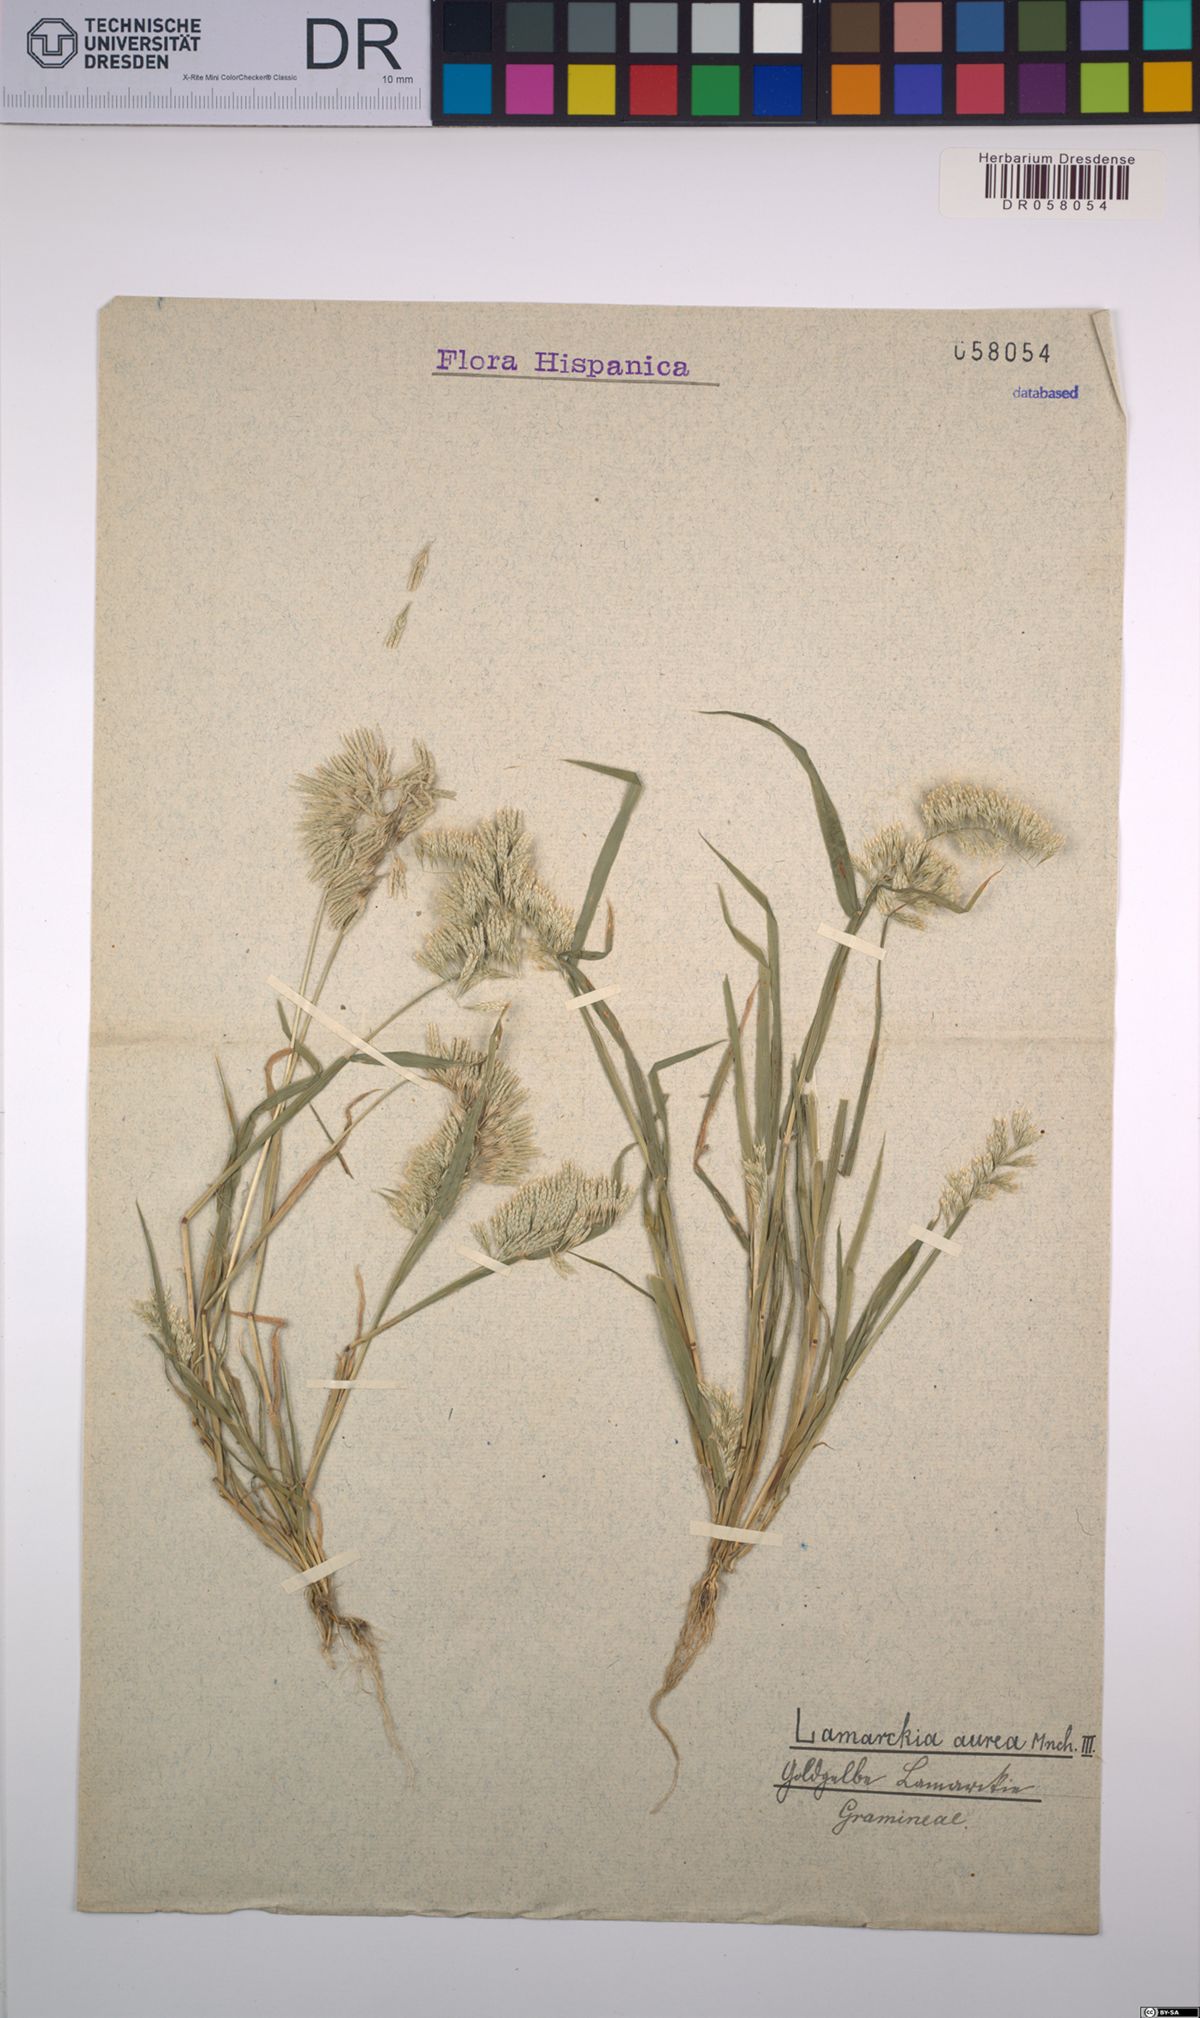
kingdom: Plantae
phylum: Tracheophyta
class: Liliopsida
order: Poales
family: Poaceae
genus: Lamarckia
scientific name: Lamarckia aurea
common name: Golden dog's-tail
